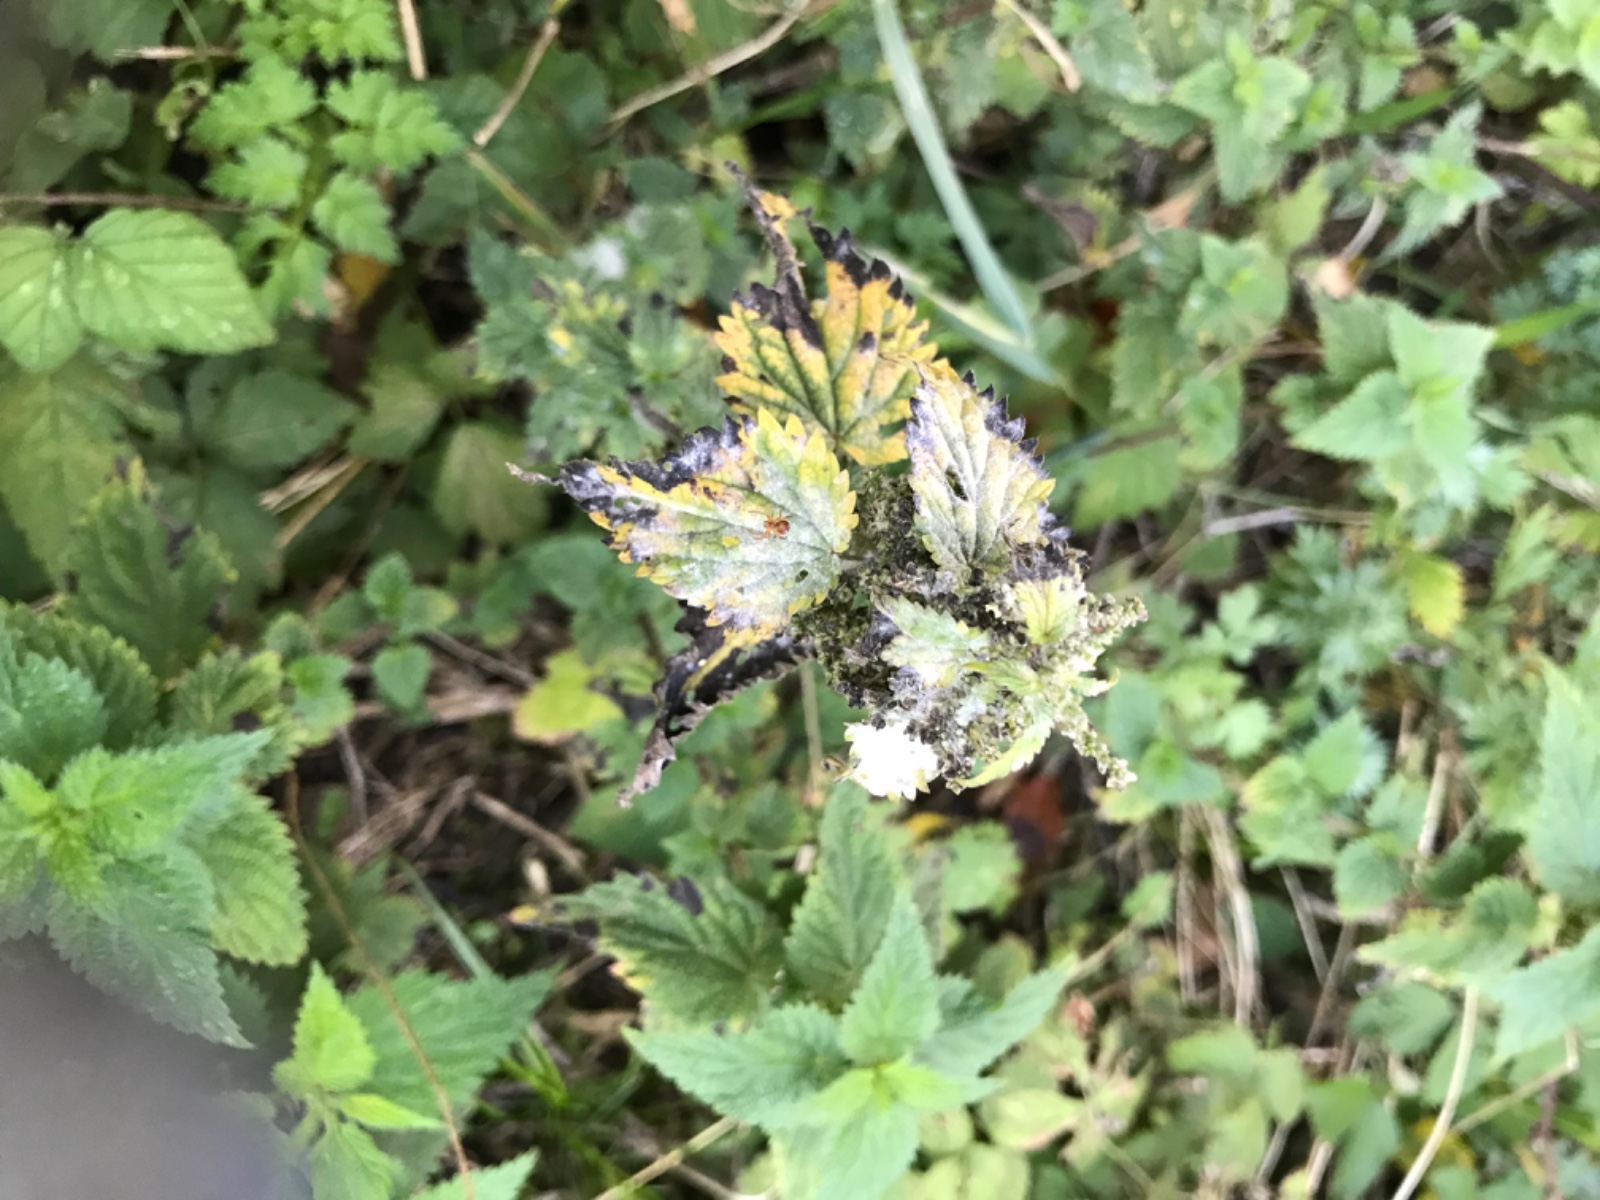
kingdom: Fungi
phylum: Ascomycota
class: Leotiomycetes
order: Helotiales
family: Erysiphaceae
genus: Erysiphe
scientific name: Erysiphe urticae
